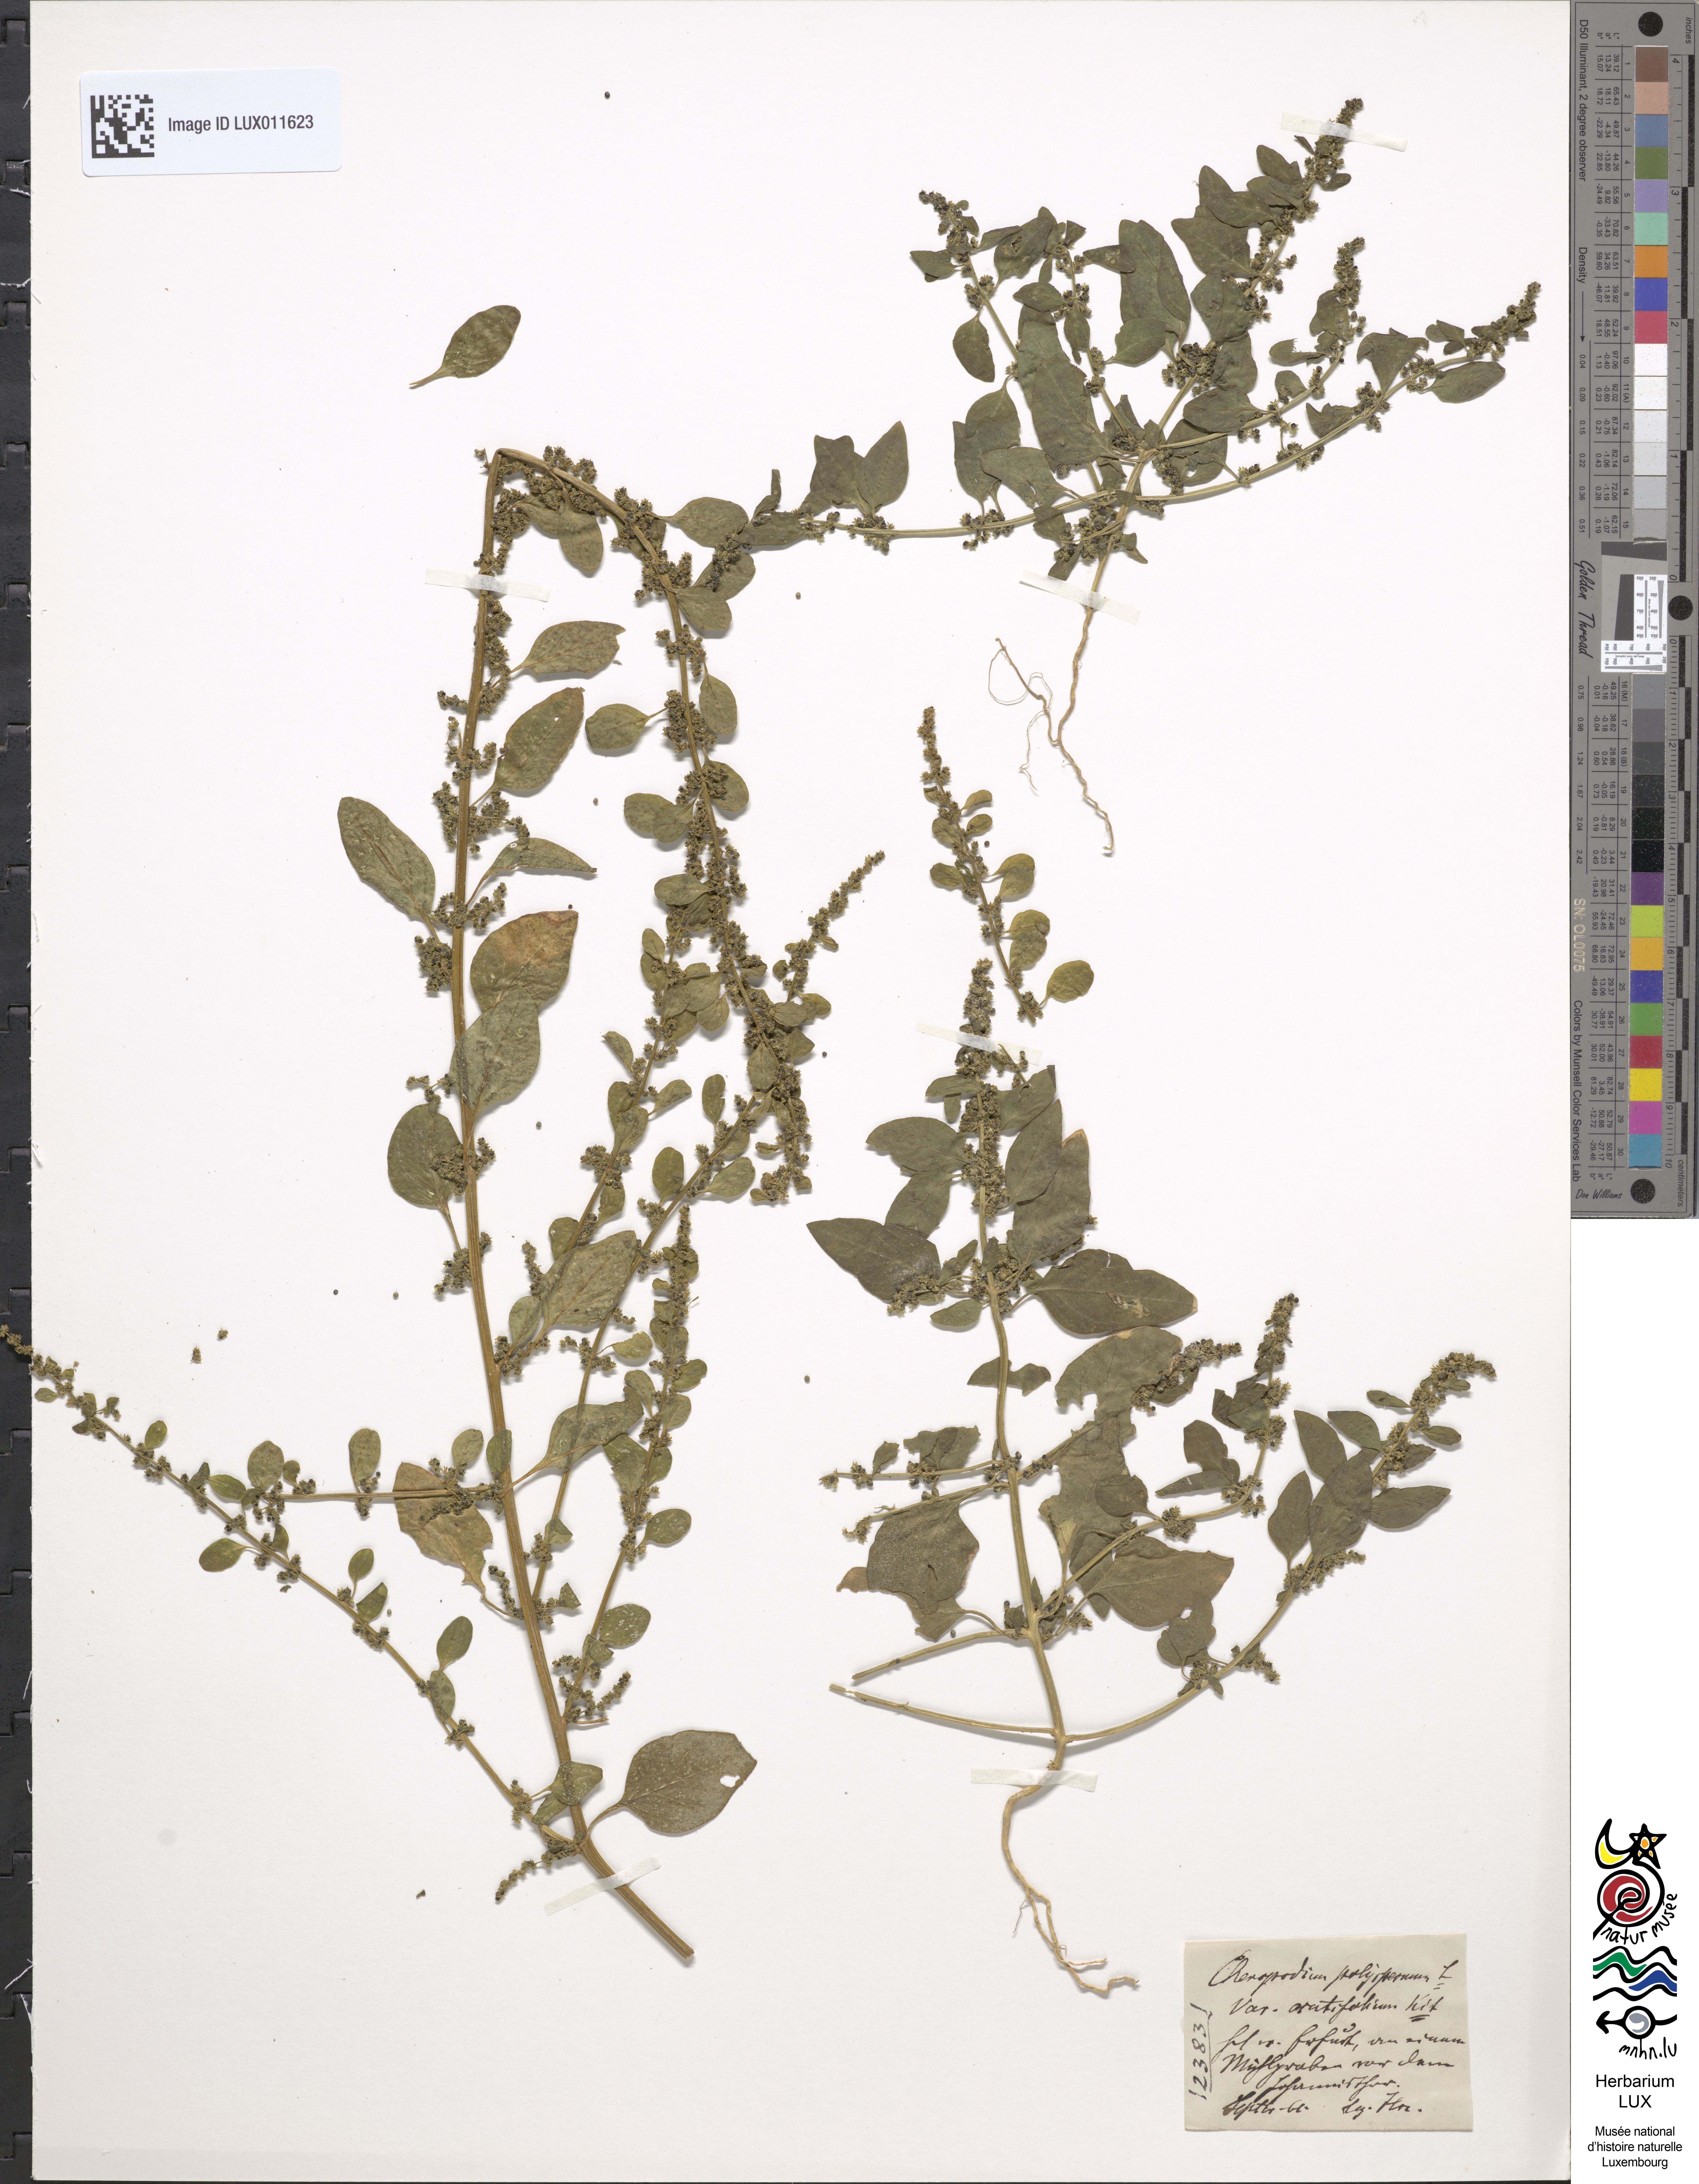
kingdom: Plantae
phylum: Tracheophyta
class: Magnoliopsida
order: Caryophyllales
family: Amaranthaceae
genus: Lipandra
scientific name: Lipandra polysperma
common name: Many-seed goosefoot
